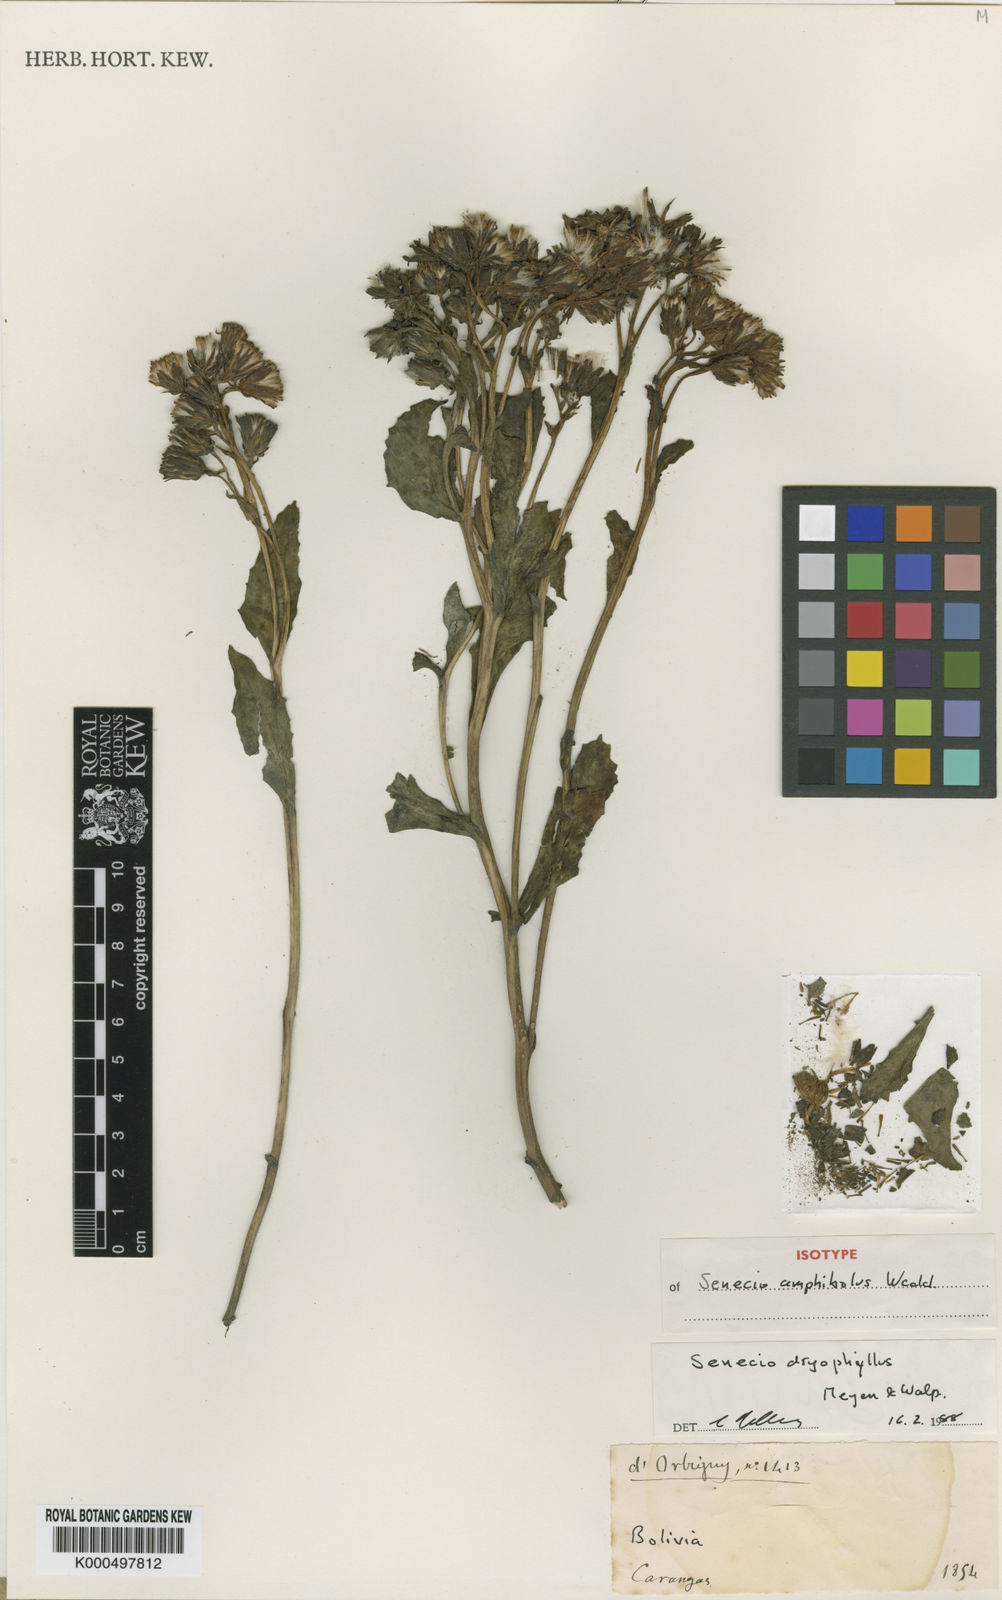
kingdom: Plantae
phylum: Tracheophyta
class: Magnoliopsida
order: Asterales
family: Asteraceae
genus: Senecio
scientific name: Senecio dryophyllus
